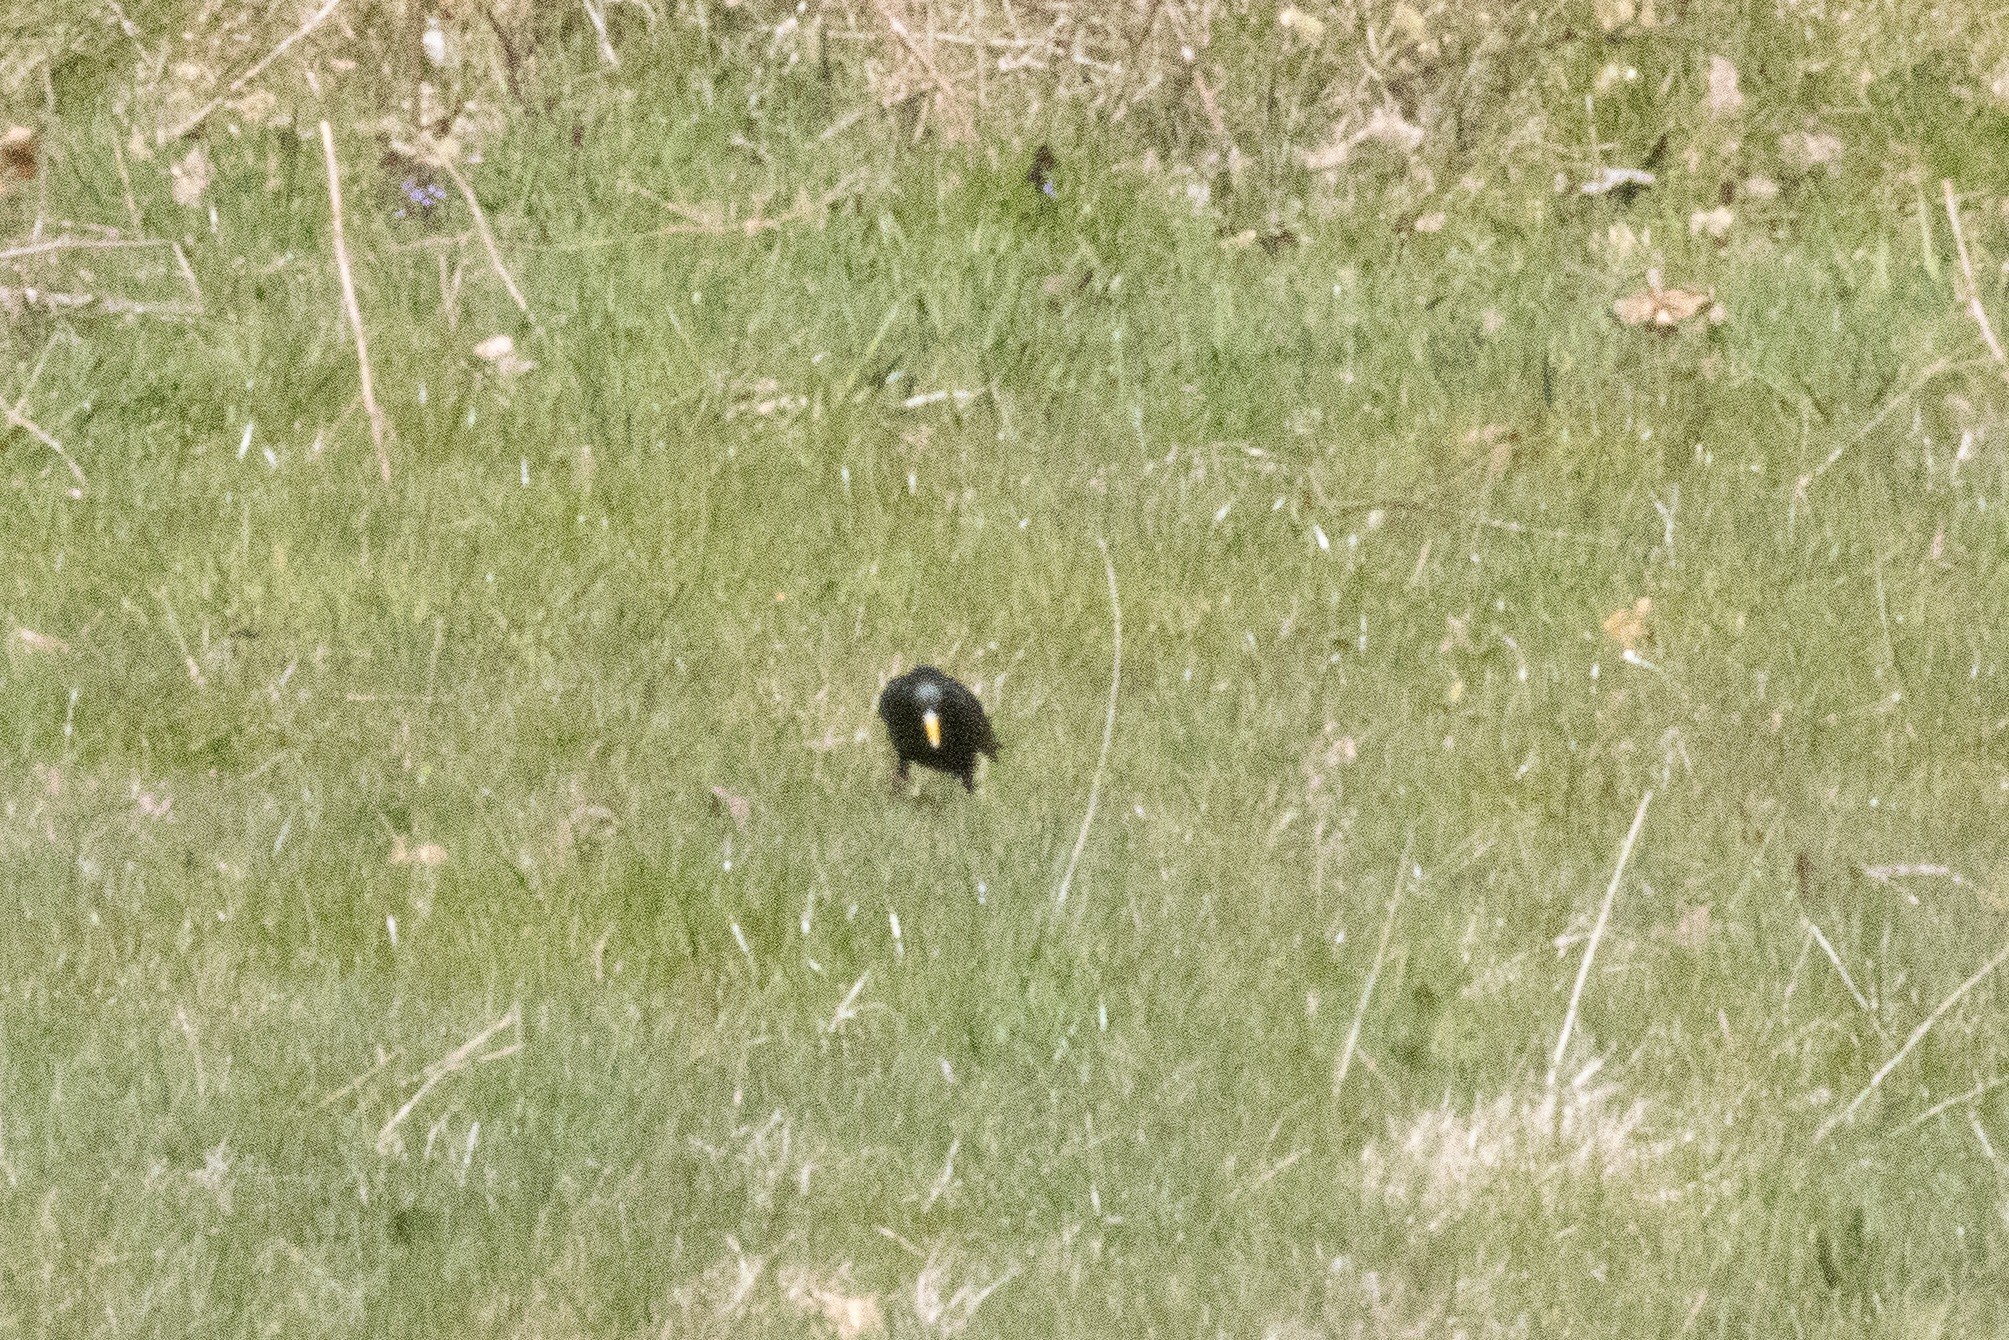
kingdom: Animalia
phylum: Chordata
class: Aves
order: Passeriformes
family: Sturnidae
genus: Sturnus
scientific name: Sturnus vulgaris
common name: Stær
